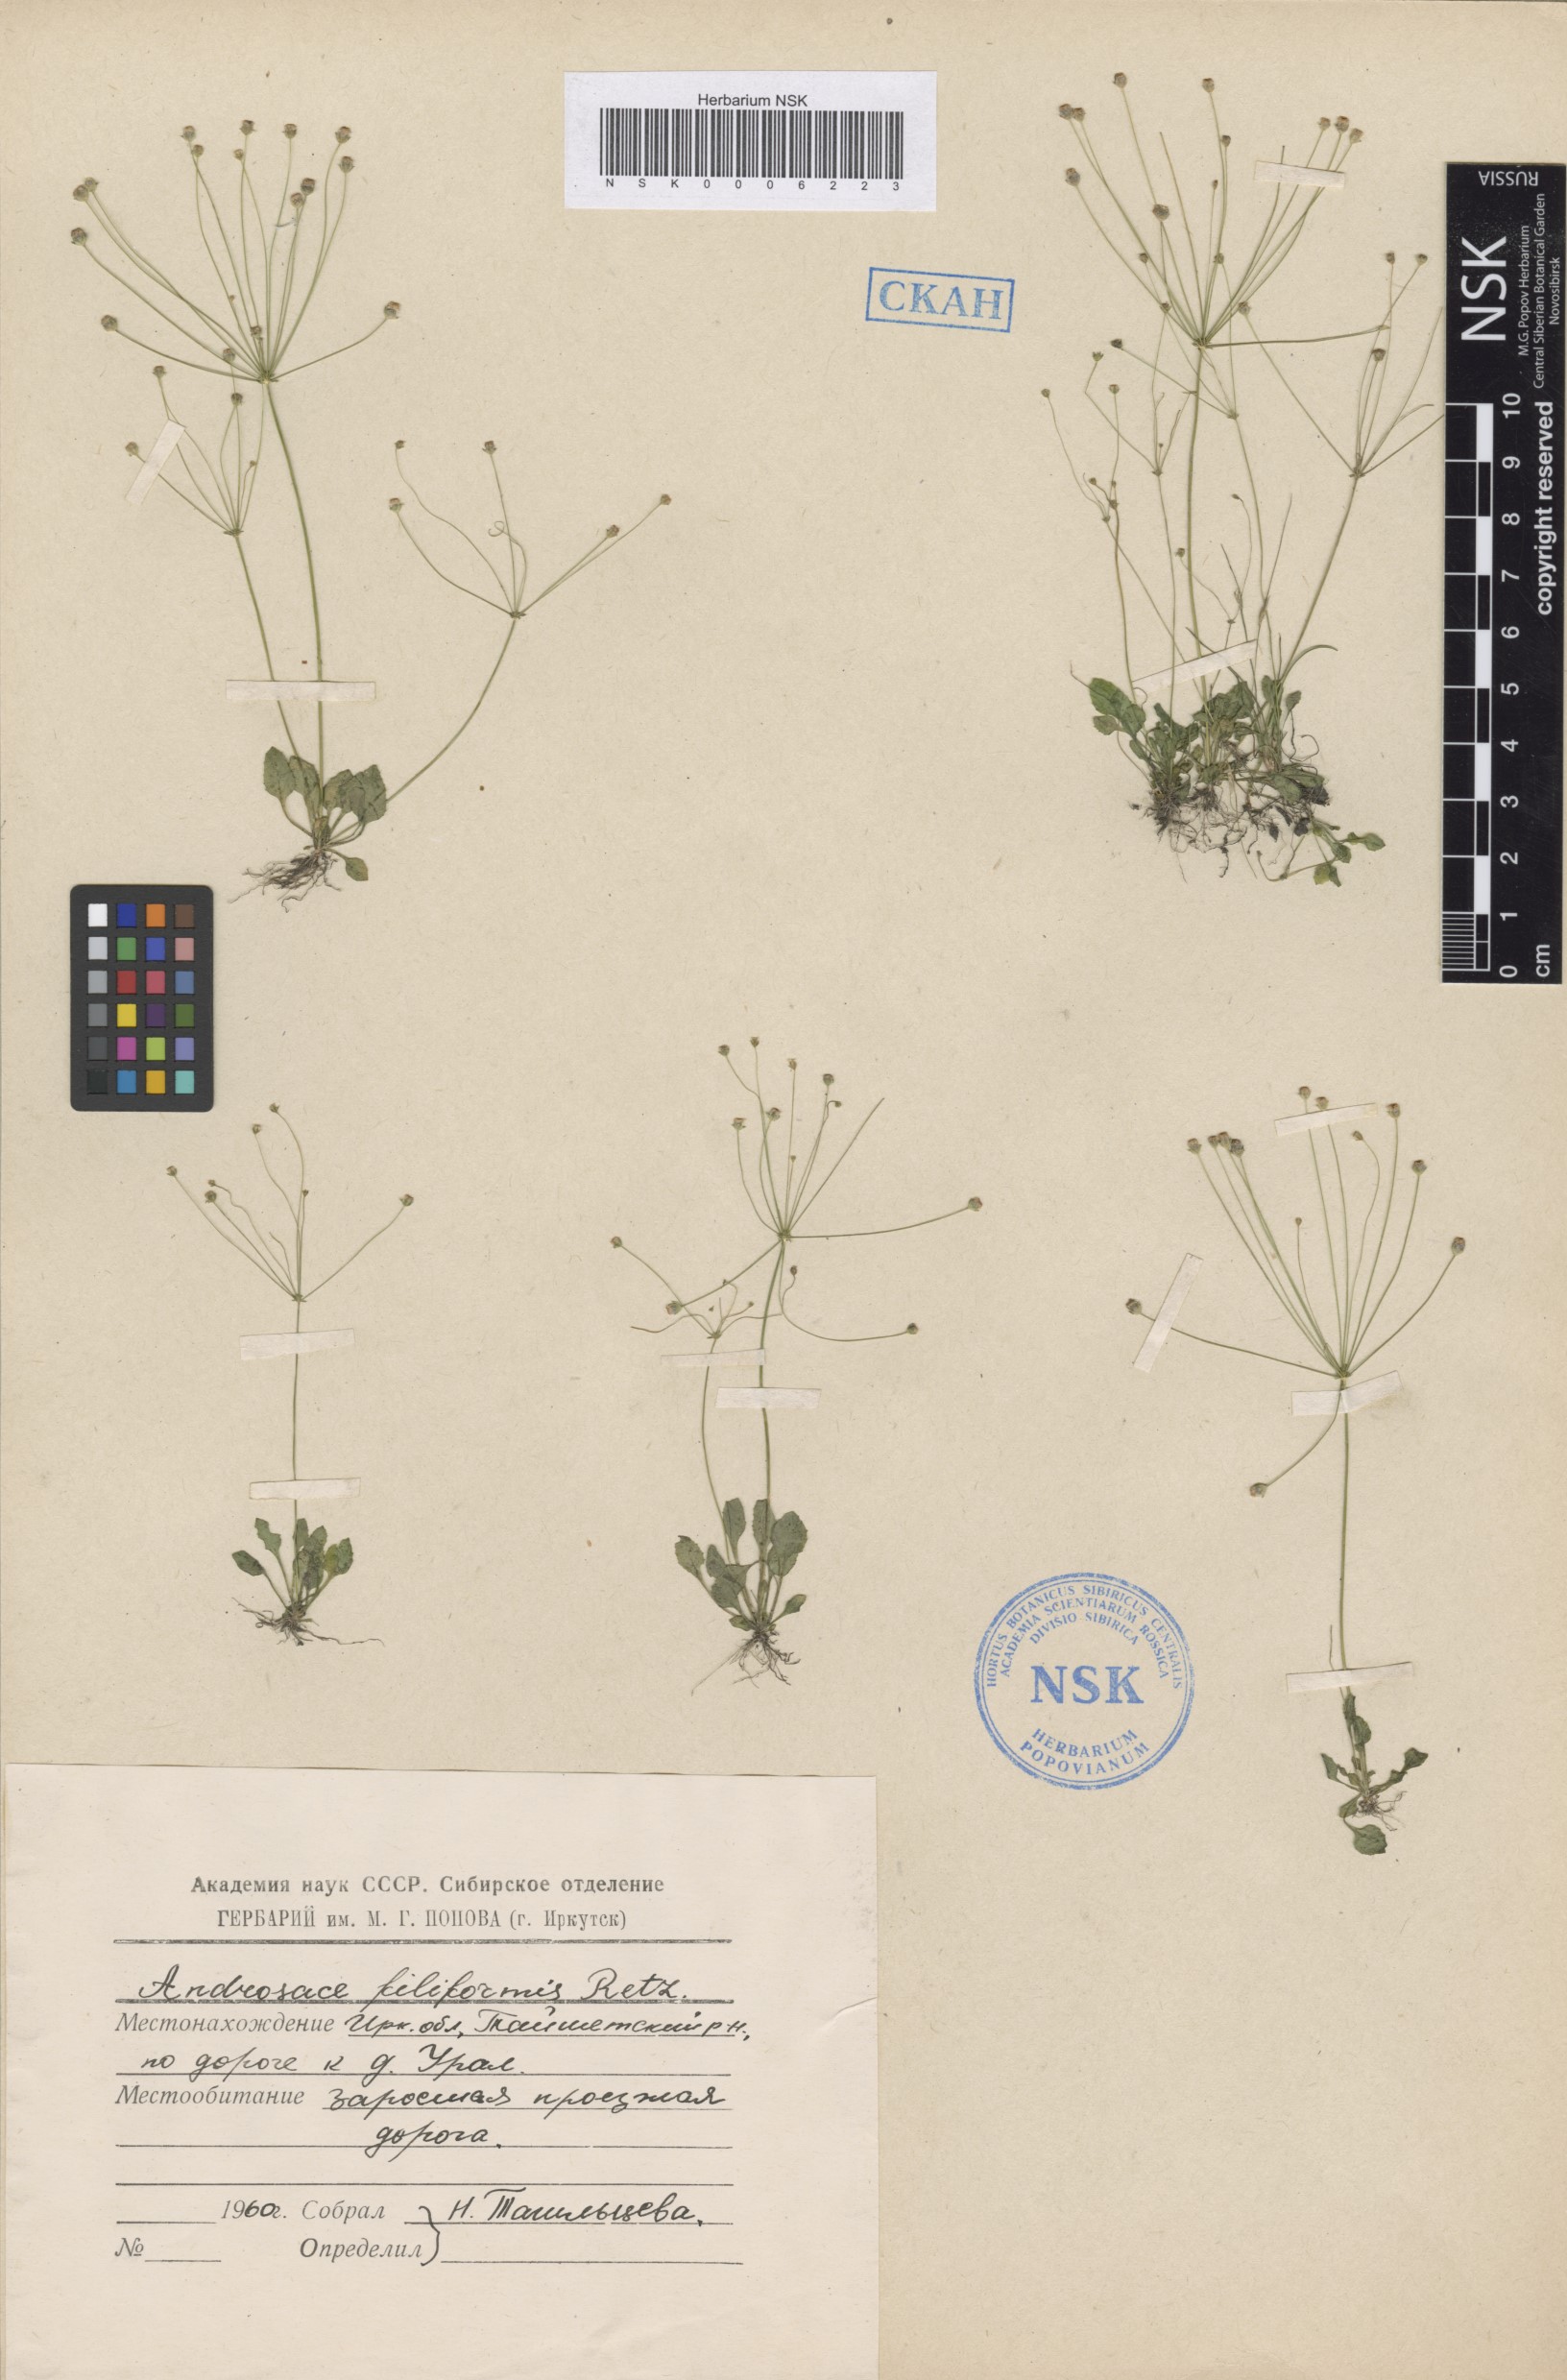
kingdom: Plantae
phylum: Tracheophyta
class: Magnoliopsida
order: Ericales
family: Primulaceae
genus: Androsace
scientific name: Androsace filiformis
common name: Filiform rock jasmine
